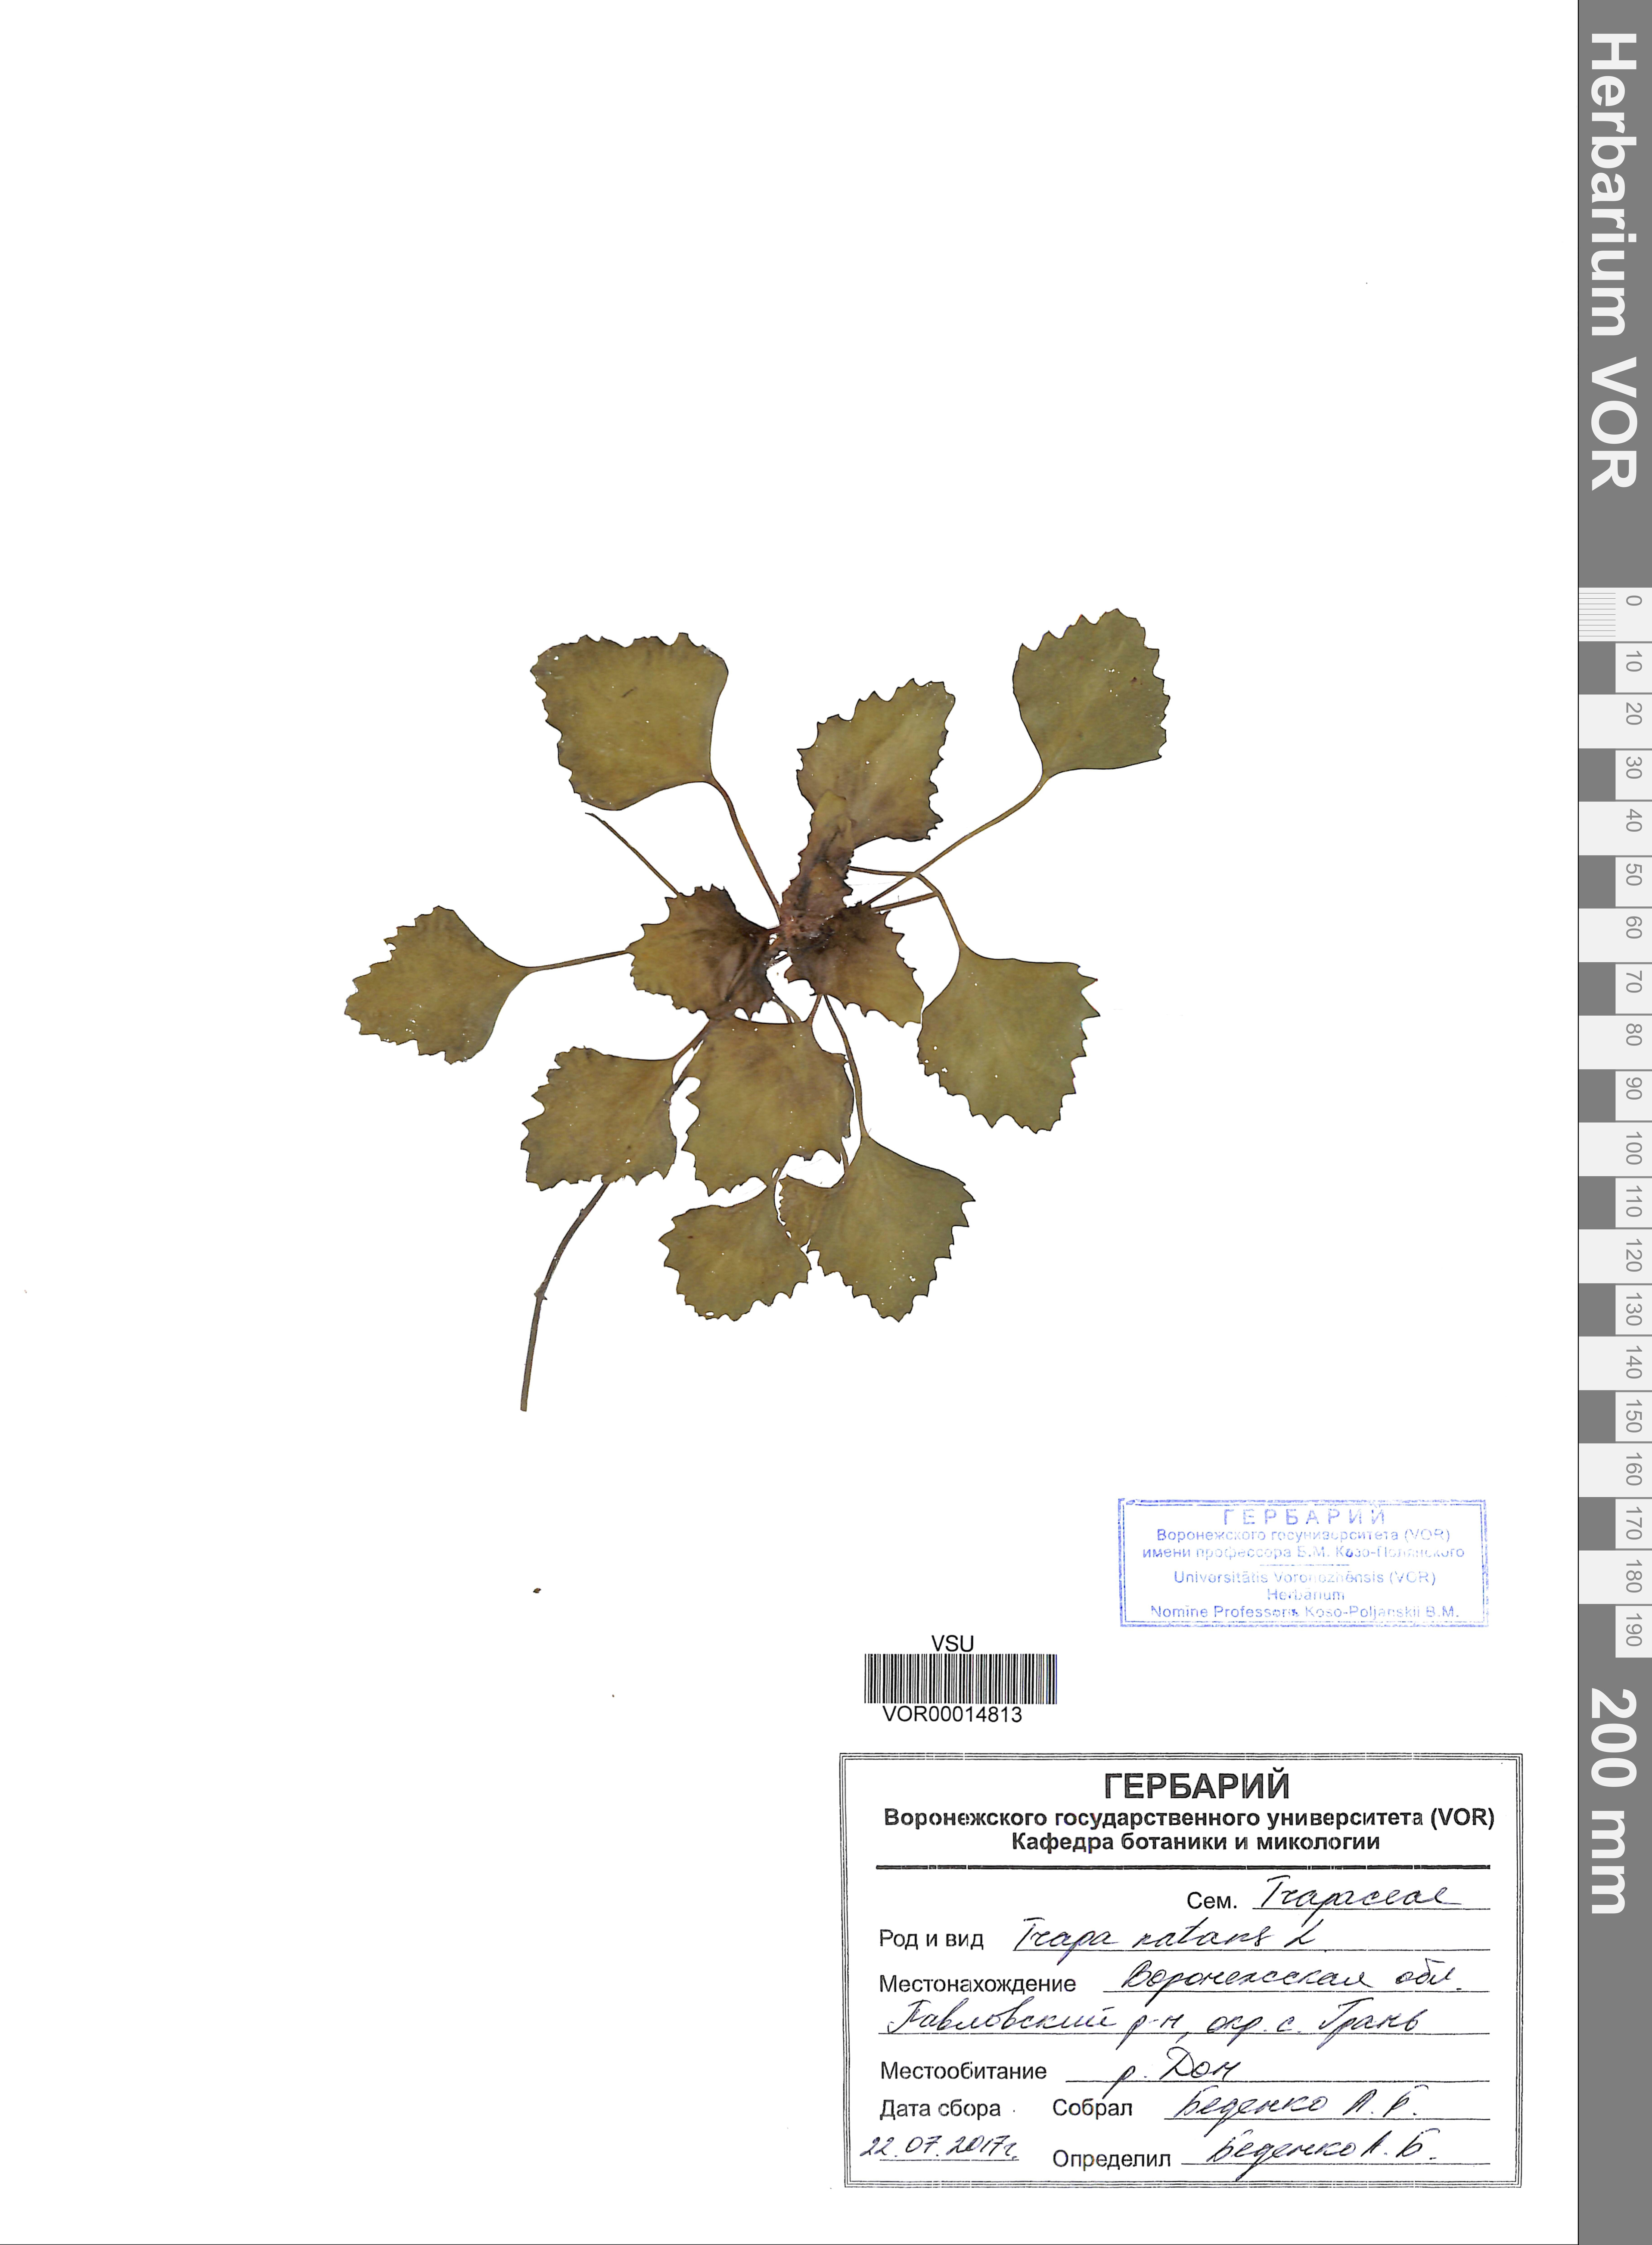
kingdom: Plantae
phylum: Tracheophyta
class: Magnoliopsida
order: Myrtales
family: Lythraceae
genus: Trapa
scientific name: Trapa natans
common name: Water chestnut
